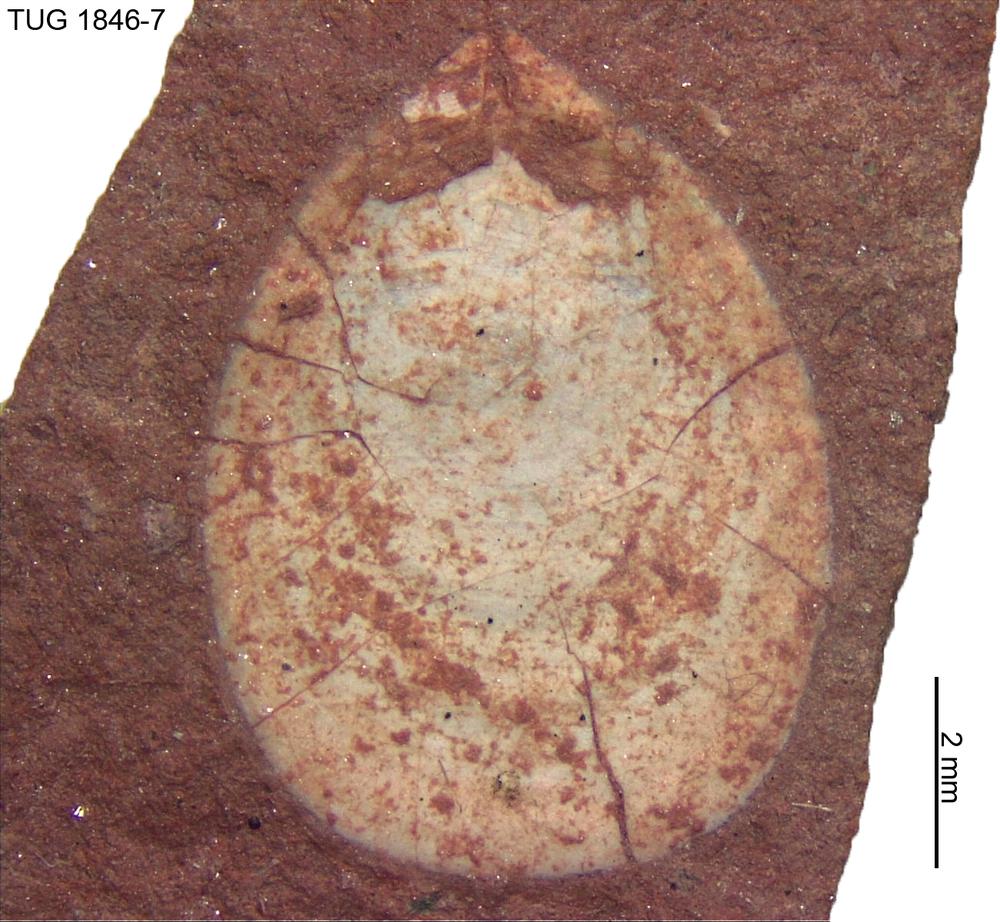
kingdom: Animalia
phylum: Brachiopoda
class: Lingulata
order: Lingulida
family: Lingulidae
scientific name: Lingulidae
